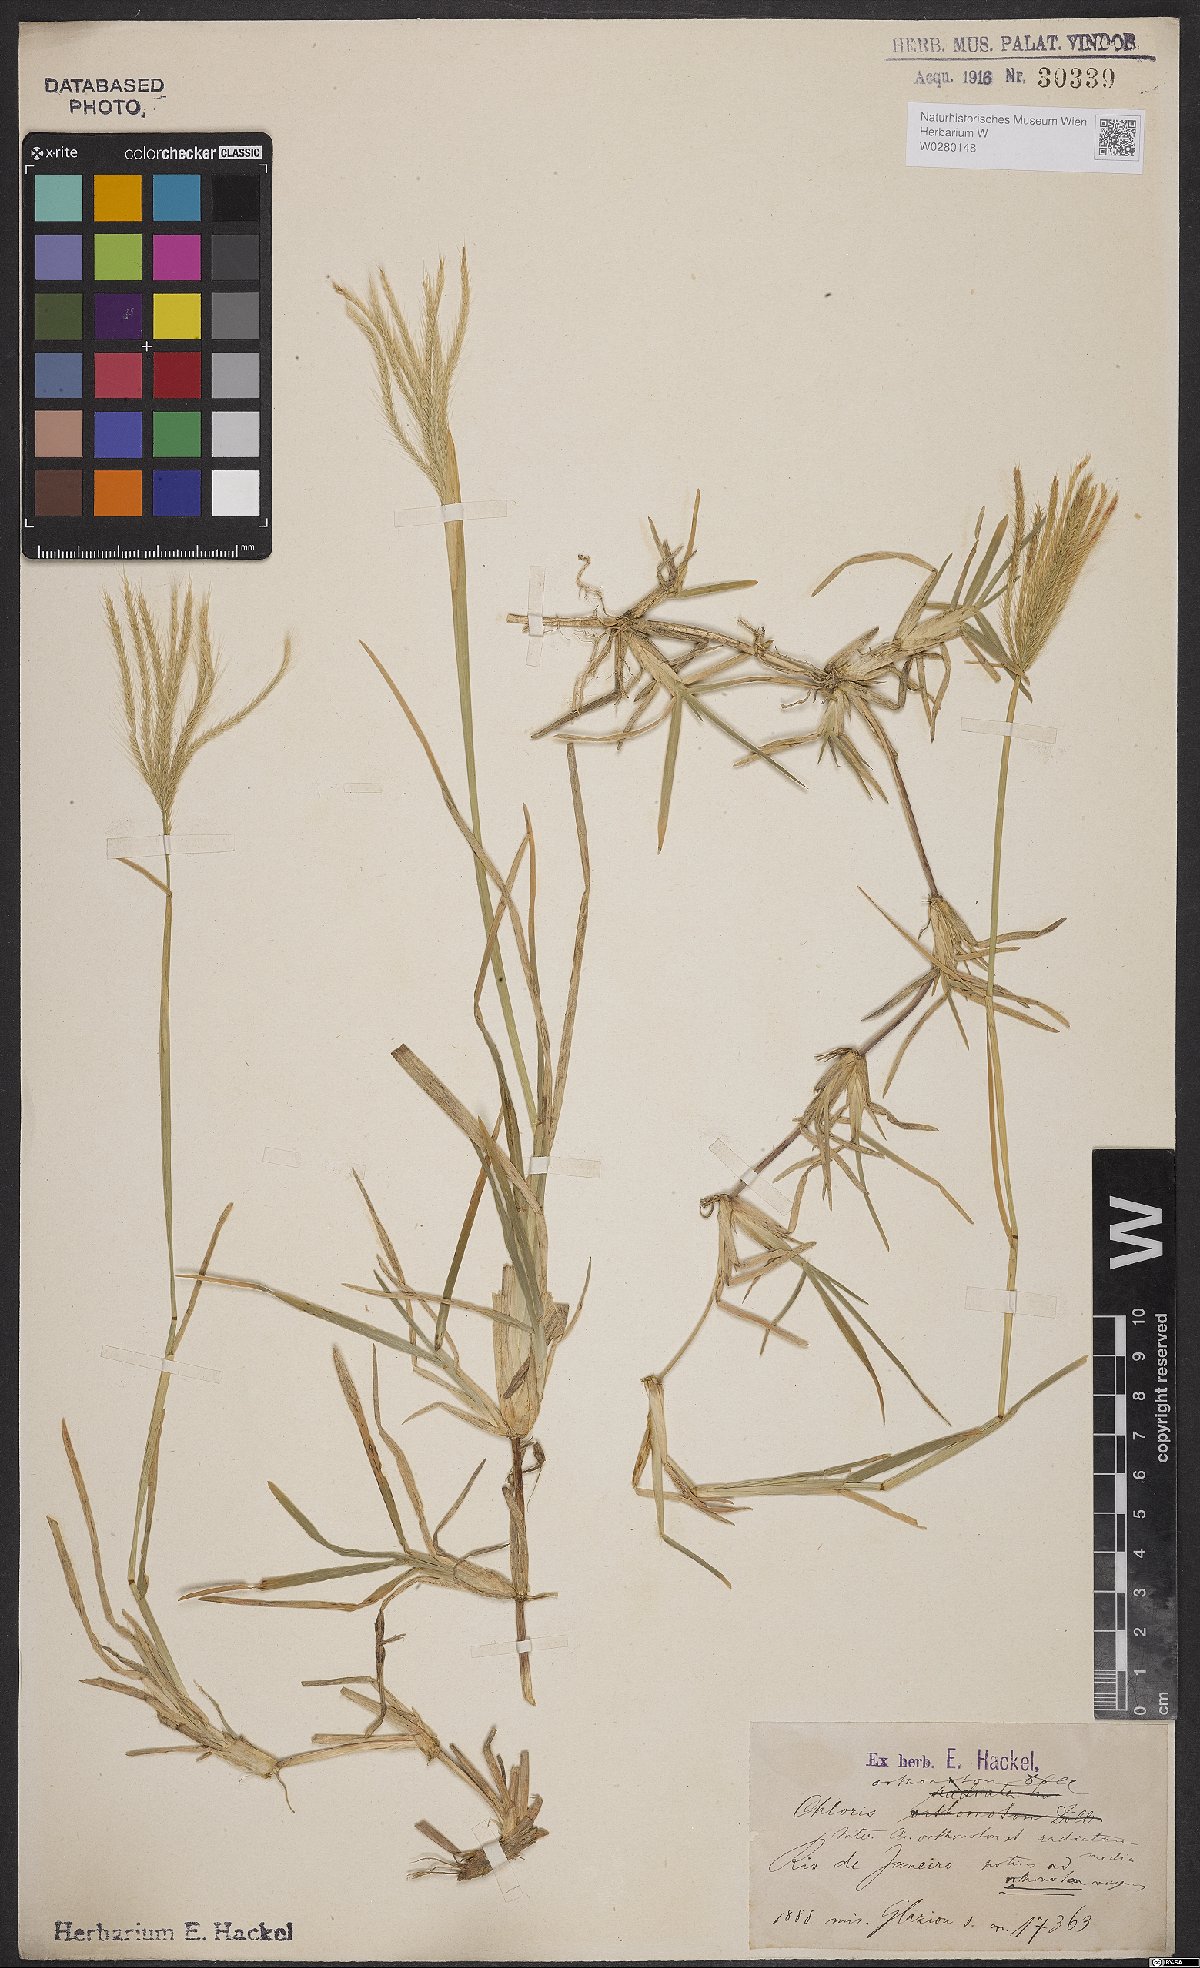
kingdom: Plantae
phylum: Tracheophyta
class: Liliopsida
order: Poales
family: Poaceae
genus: Chloris
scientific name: Chloris orthonoton
